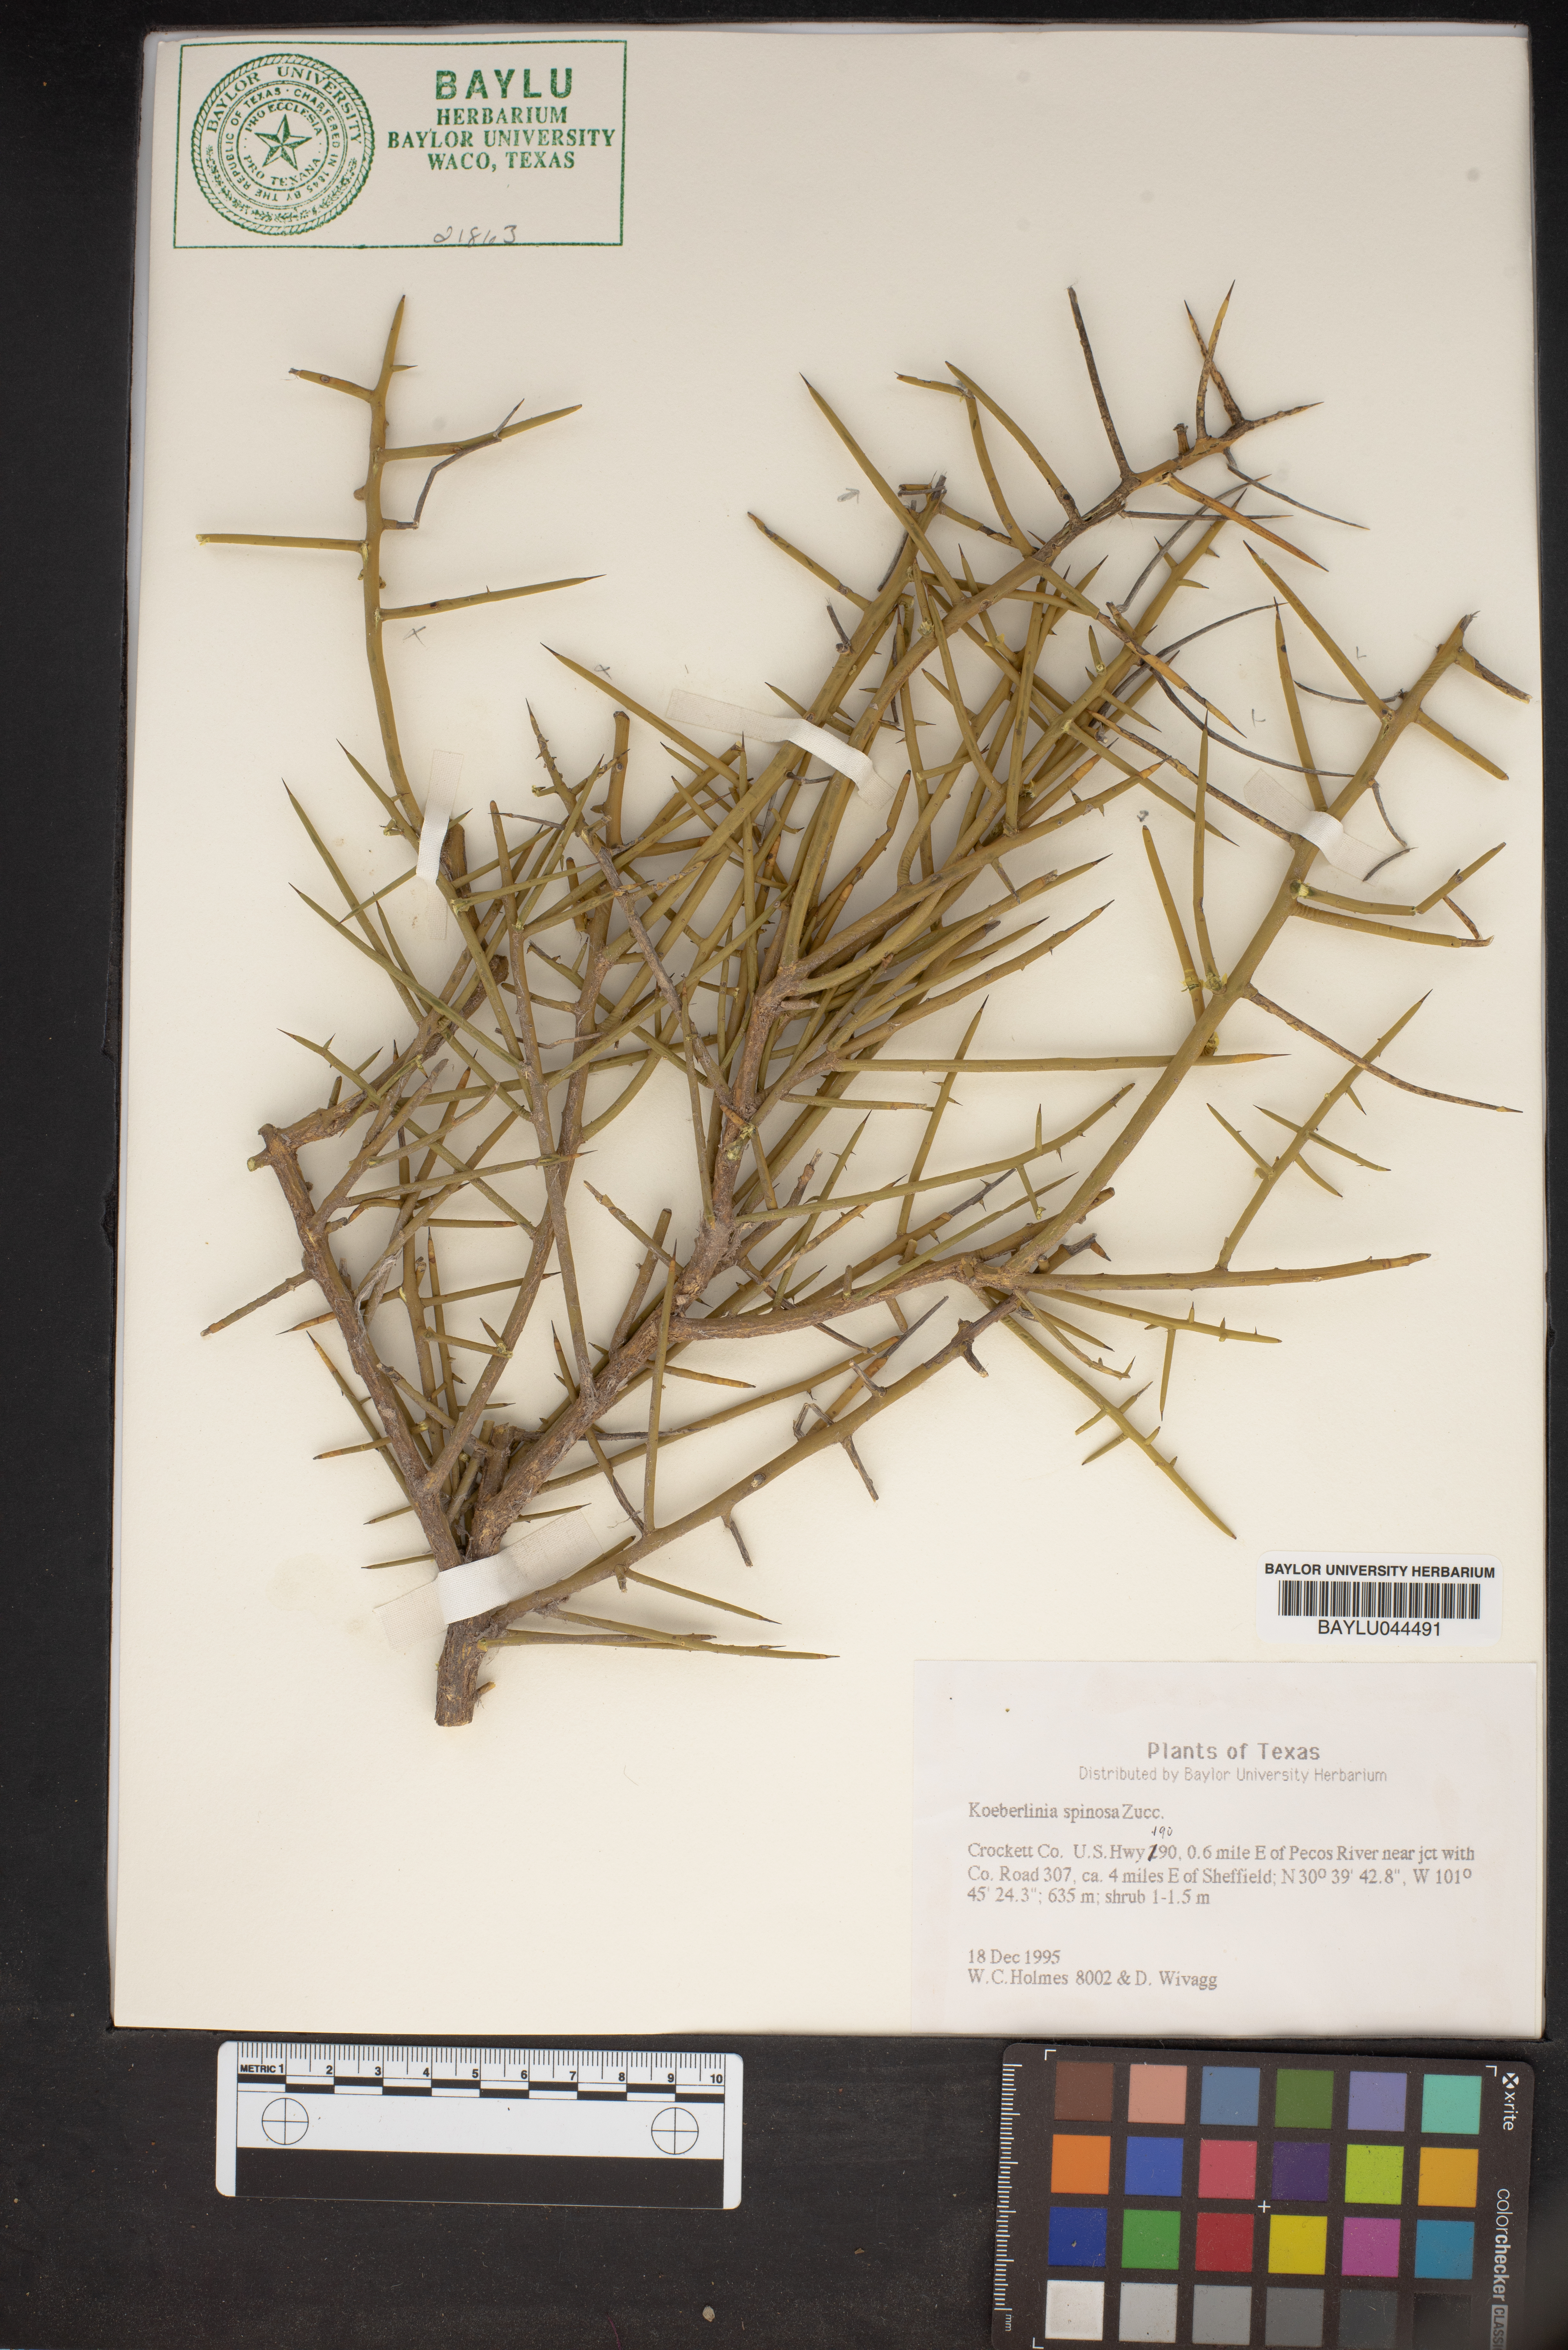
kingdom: Plantae
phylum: Tracheophyta
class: Magnoliopsida
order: Brassicales
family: Koeberliniaceae
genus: Koeberlinia
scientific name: Koeberlinia spinosa
